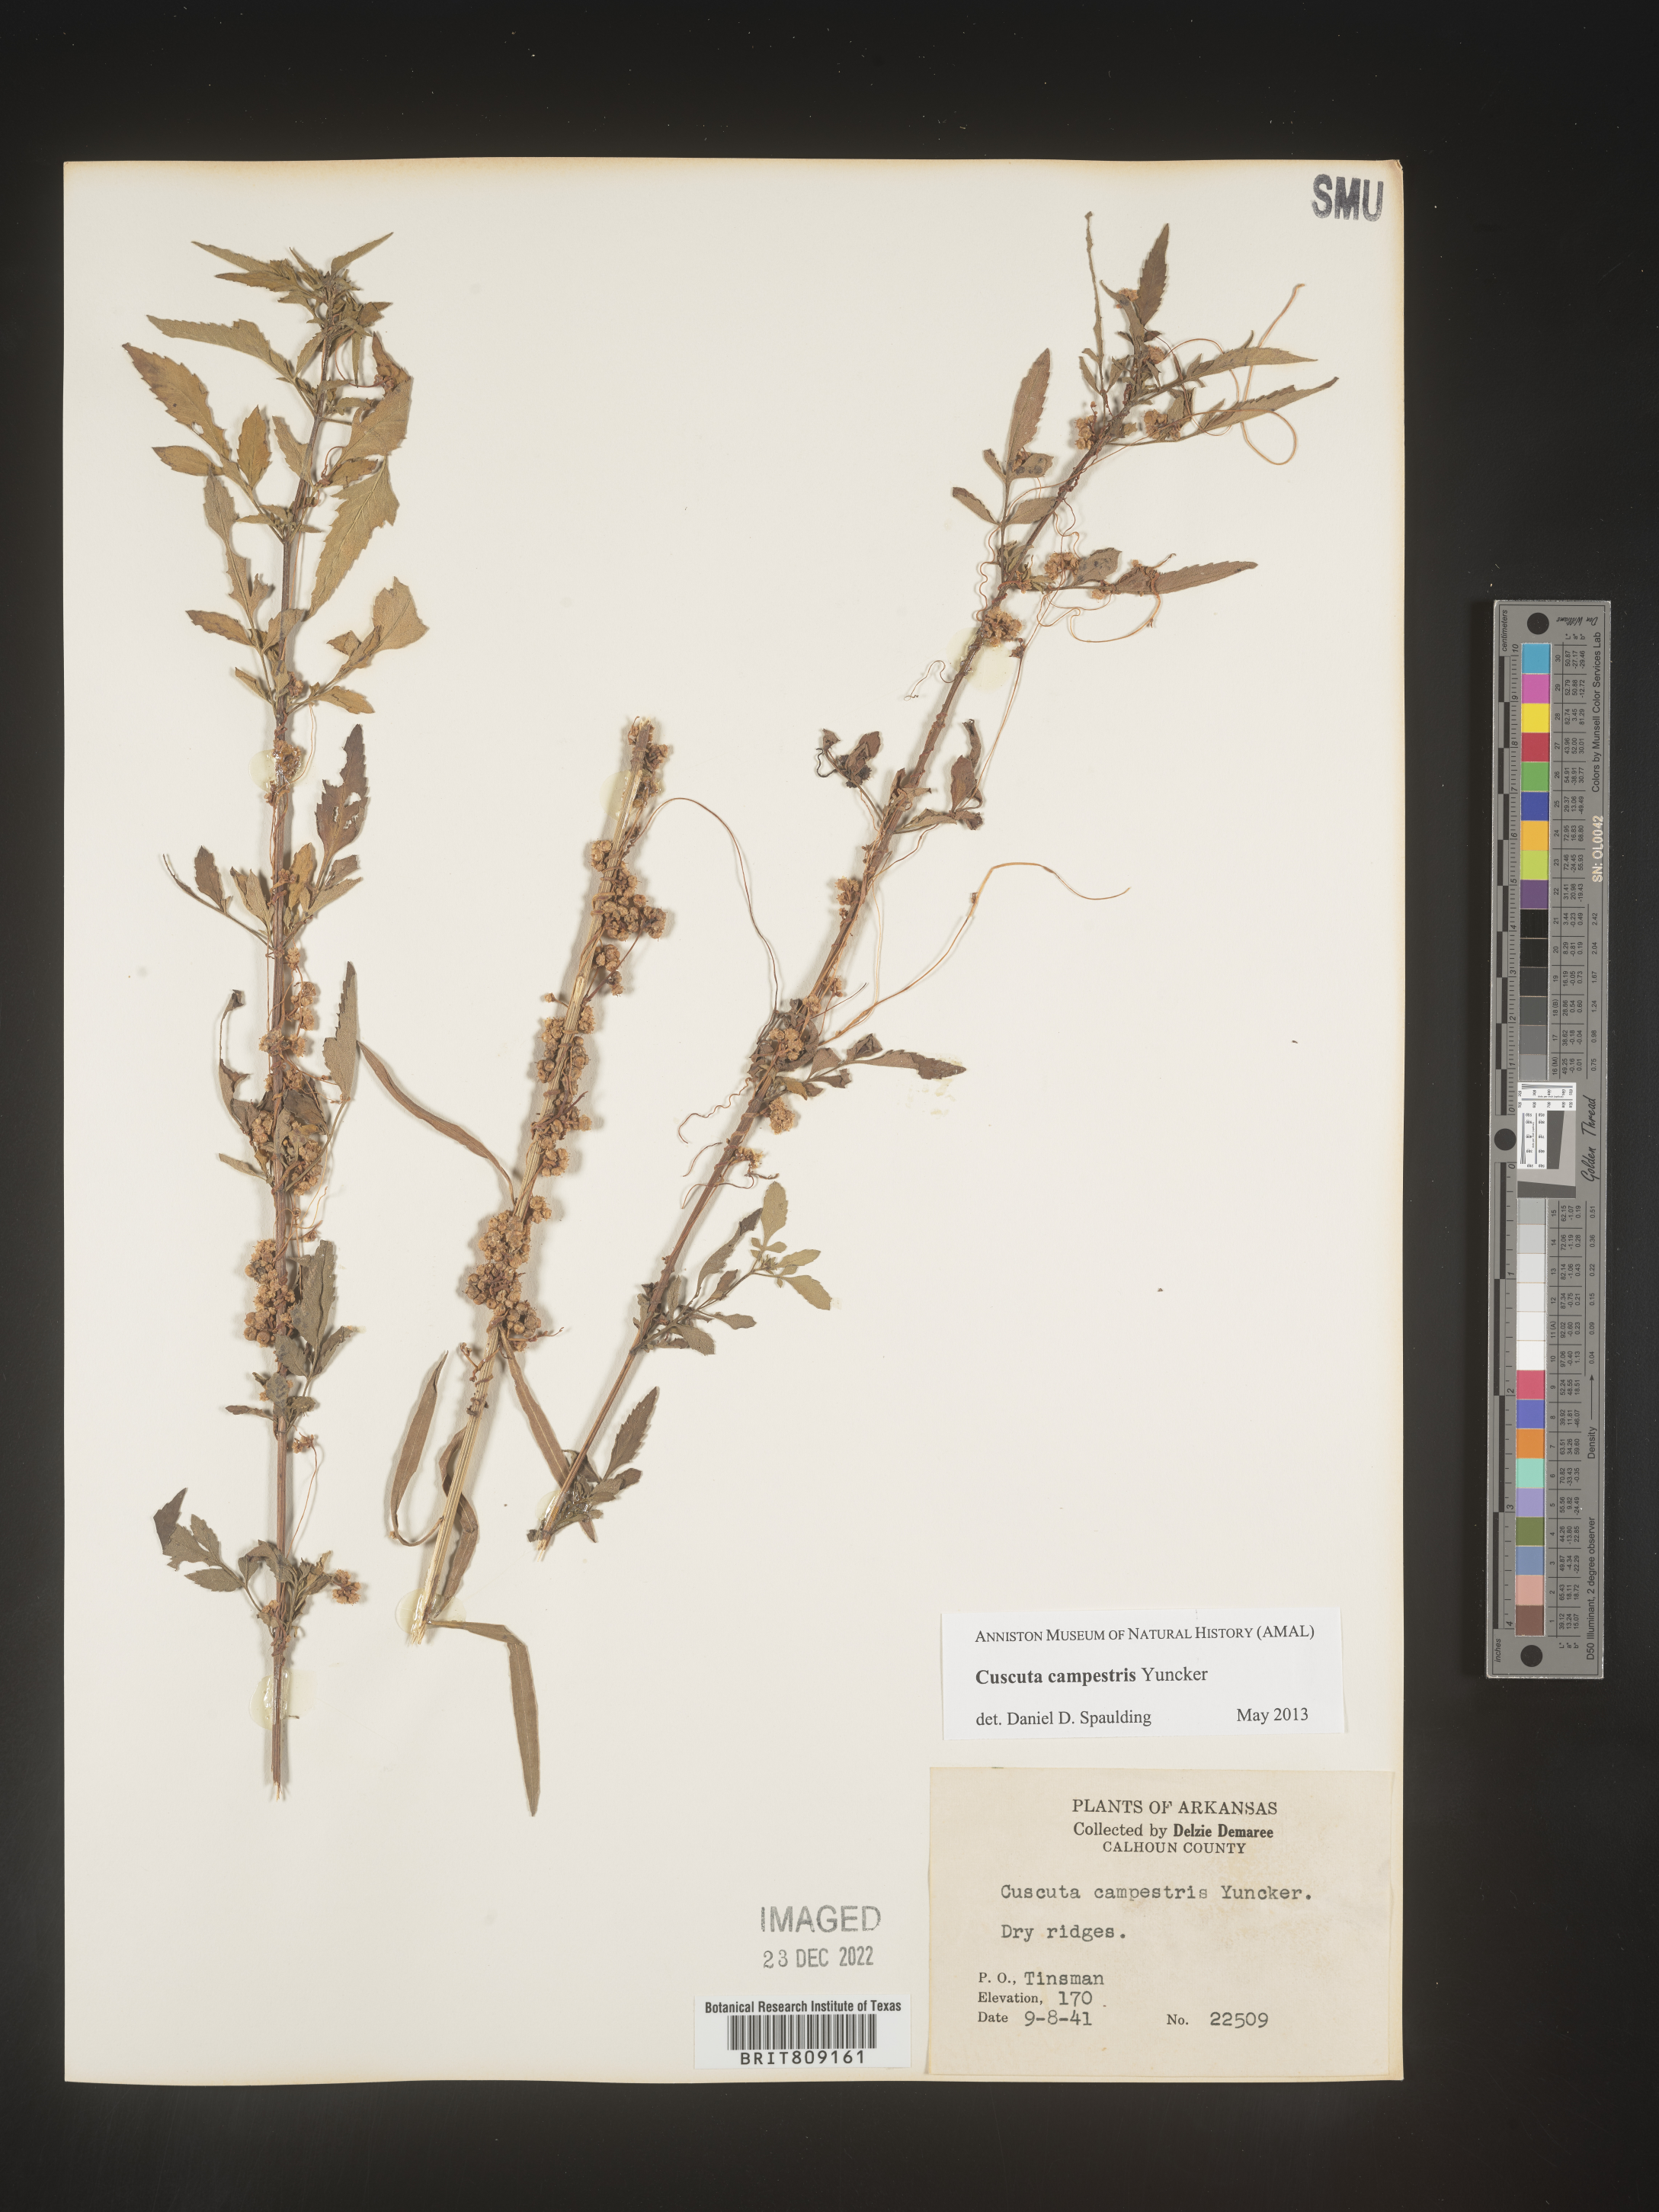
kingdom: Plantae
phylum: Tracheophyta
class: Magnoliopsida
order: Solanales
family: Convolvulaceae
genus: Cuscuta
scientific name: Cuscuta campestris
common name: Yellow dodder
